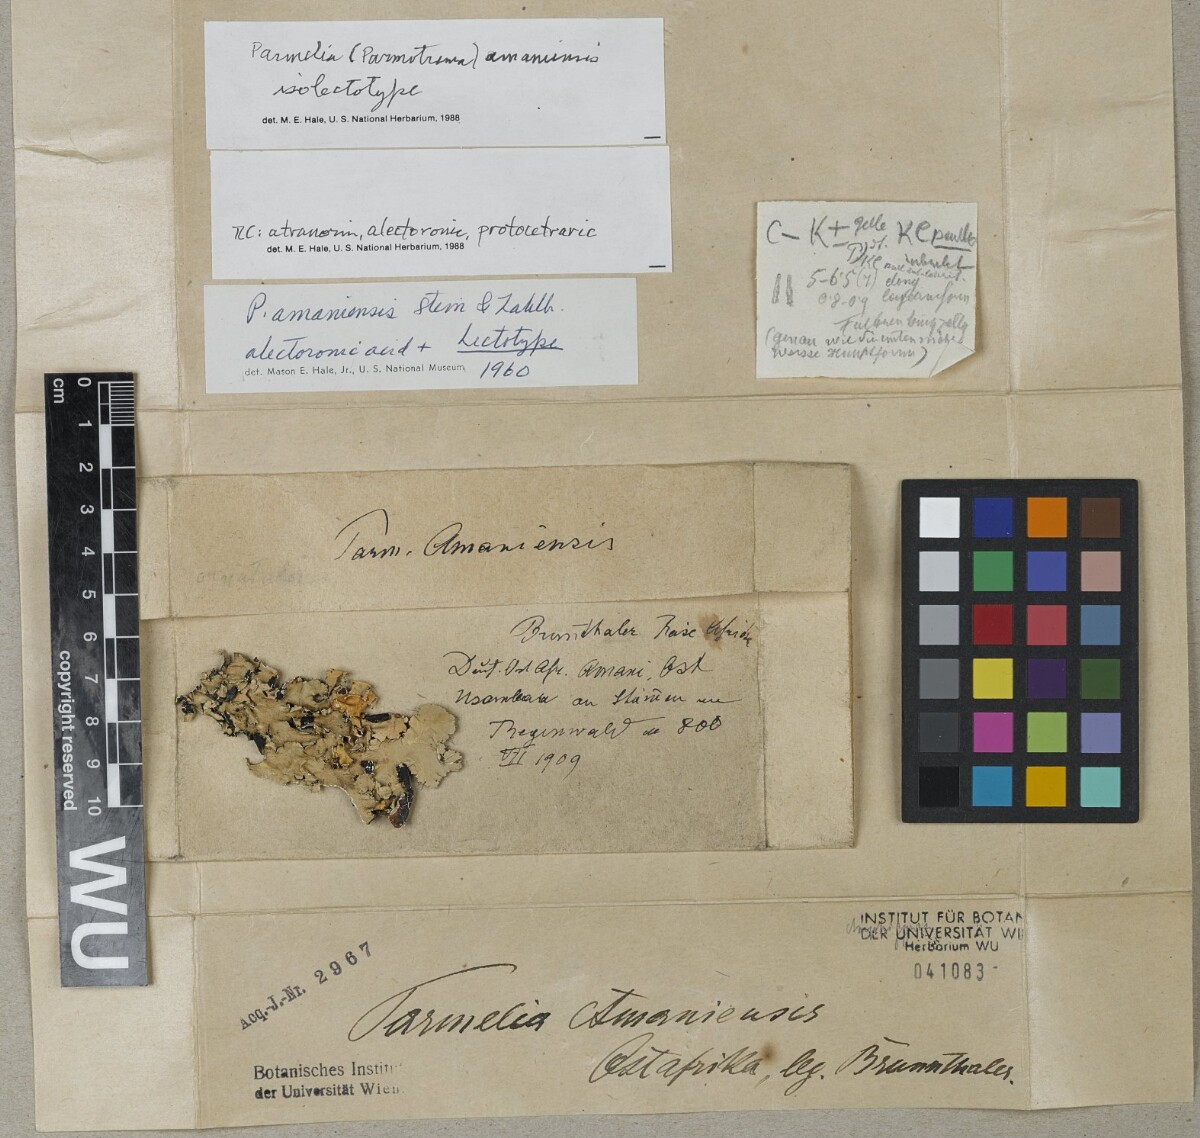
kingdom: Fungi
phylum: Ascomycota
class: Lecanoromycetes
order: Lecanorales
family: Parmeliaceae
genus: Parmotrema
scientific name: Parmotrema amaniense
